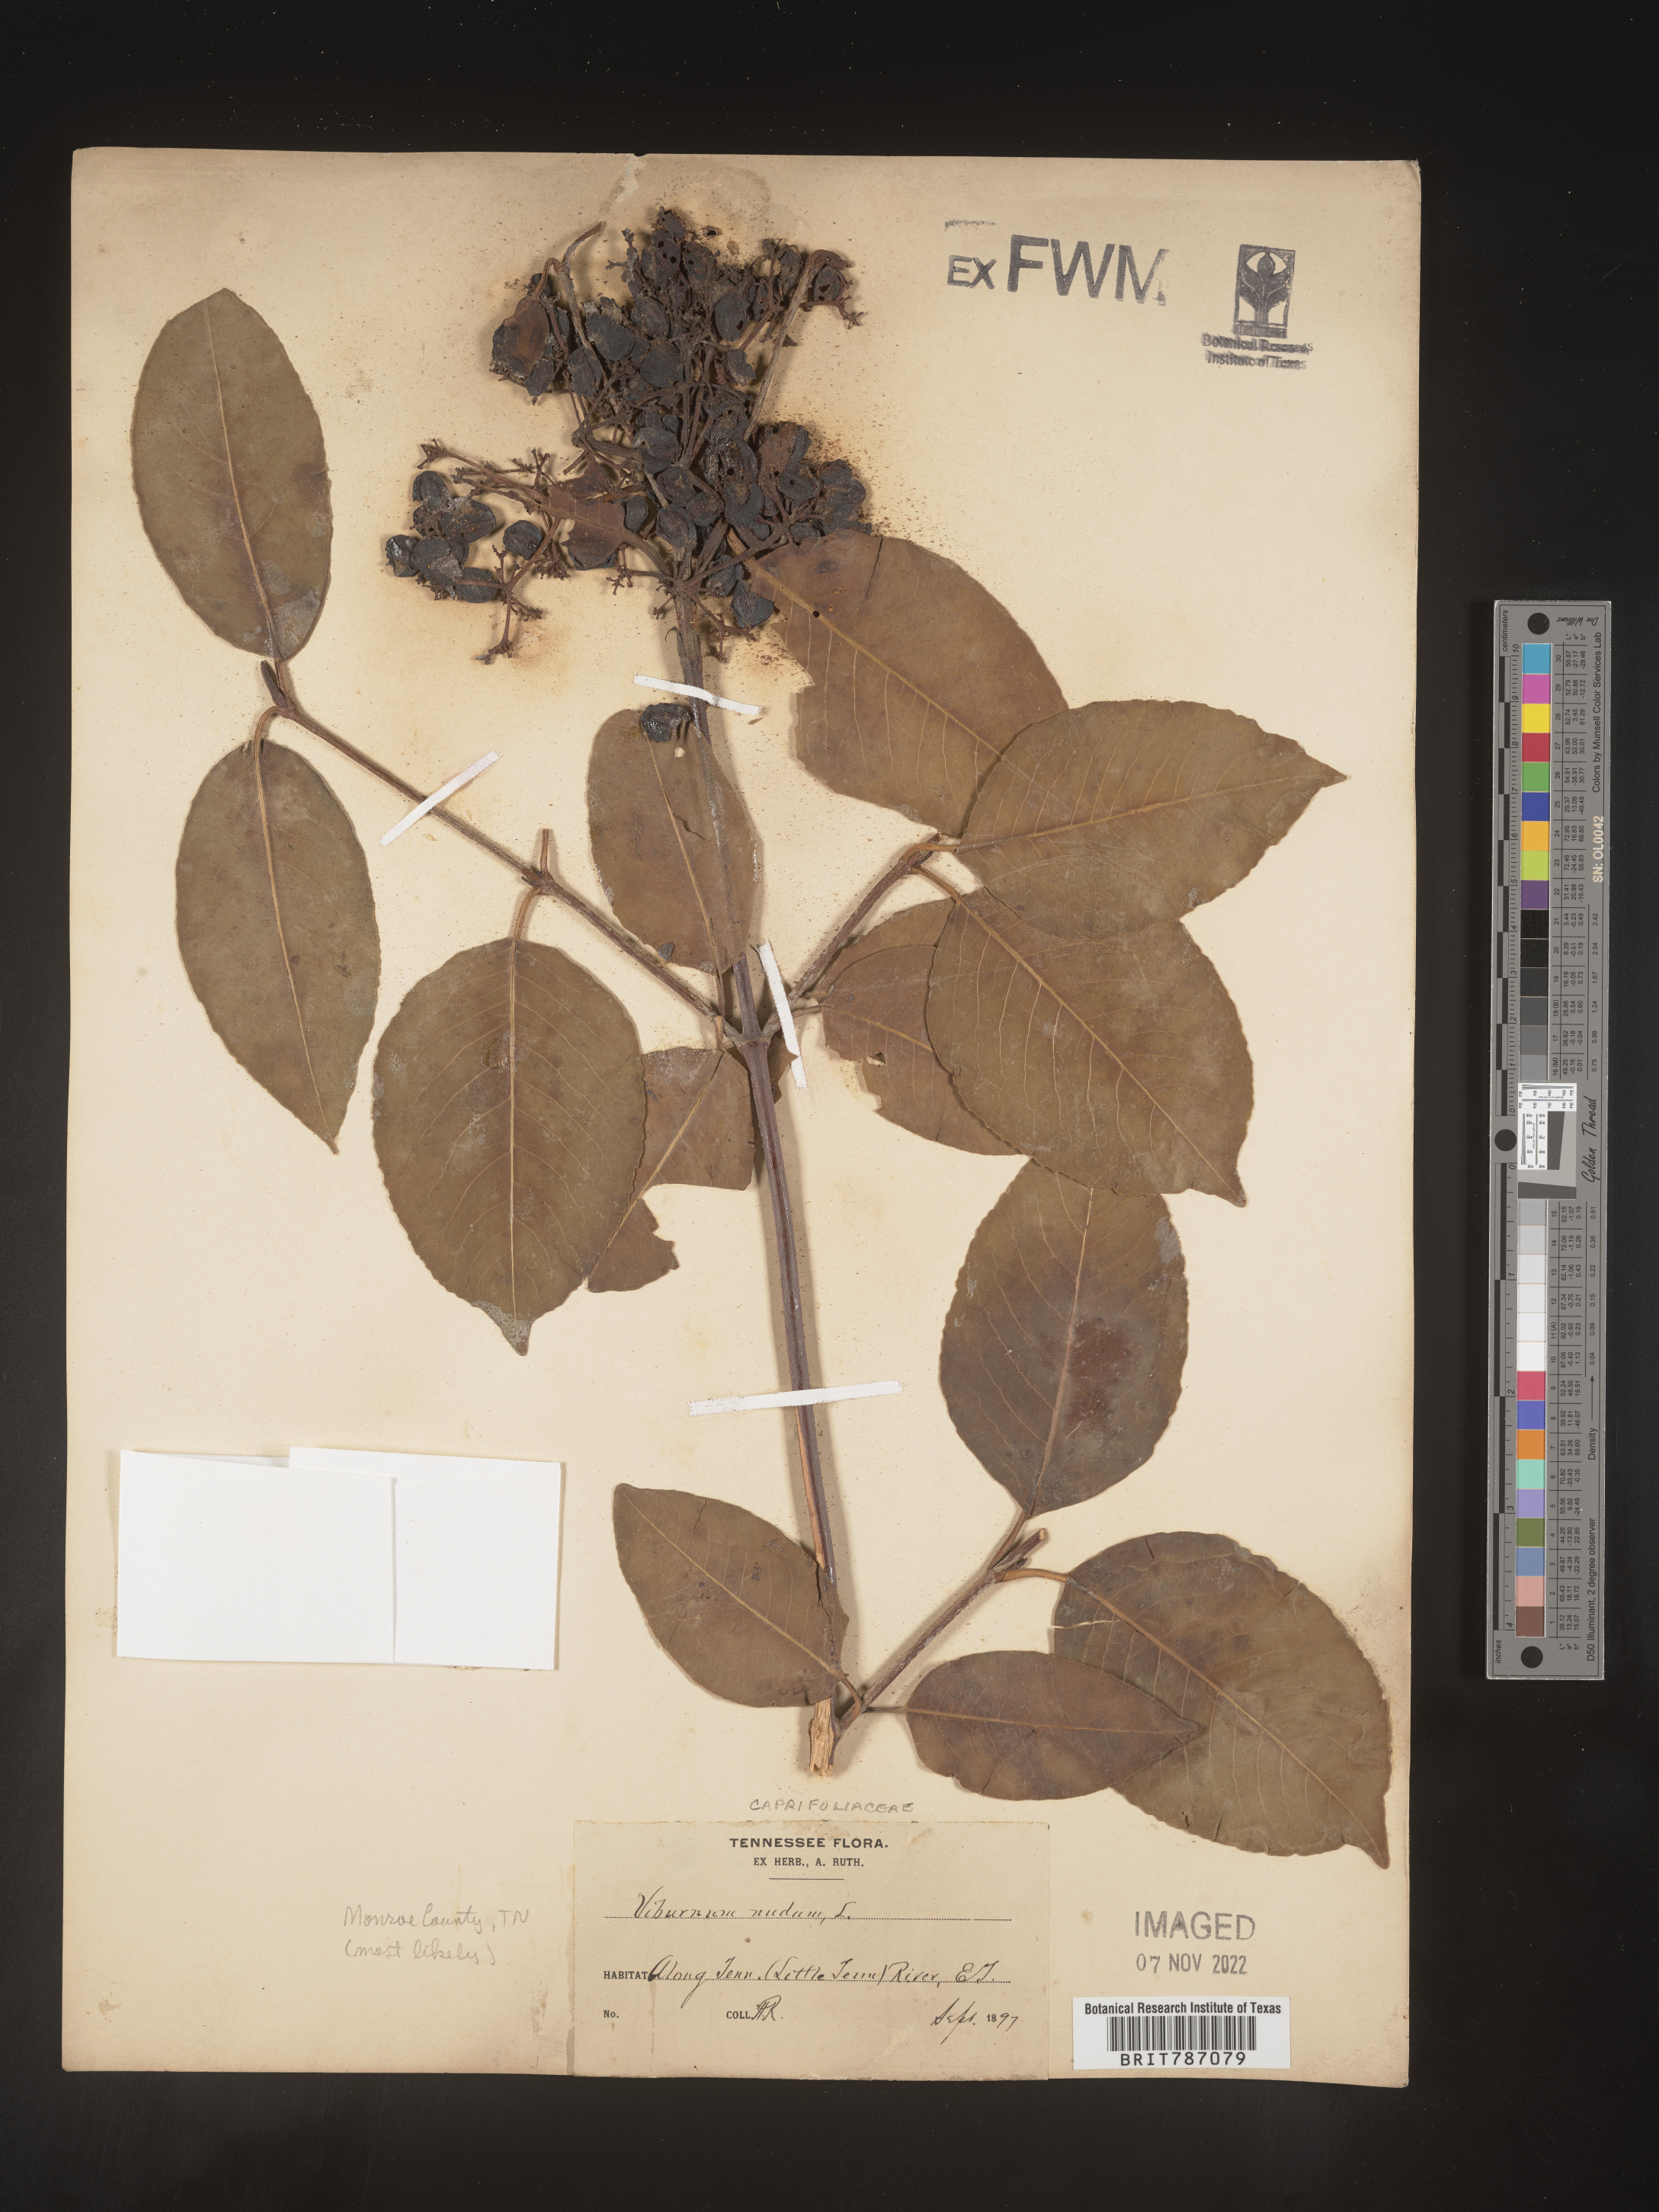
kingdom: Plantae
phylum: Tracheophyta
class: Magnoliopsida
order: Dipsacales
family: Viburnaceae
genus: Viburnum
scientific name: Viburnum nudum
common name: Possum haw
